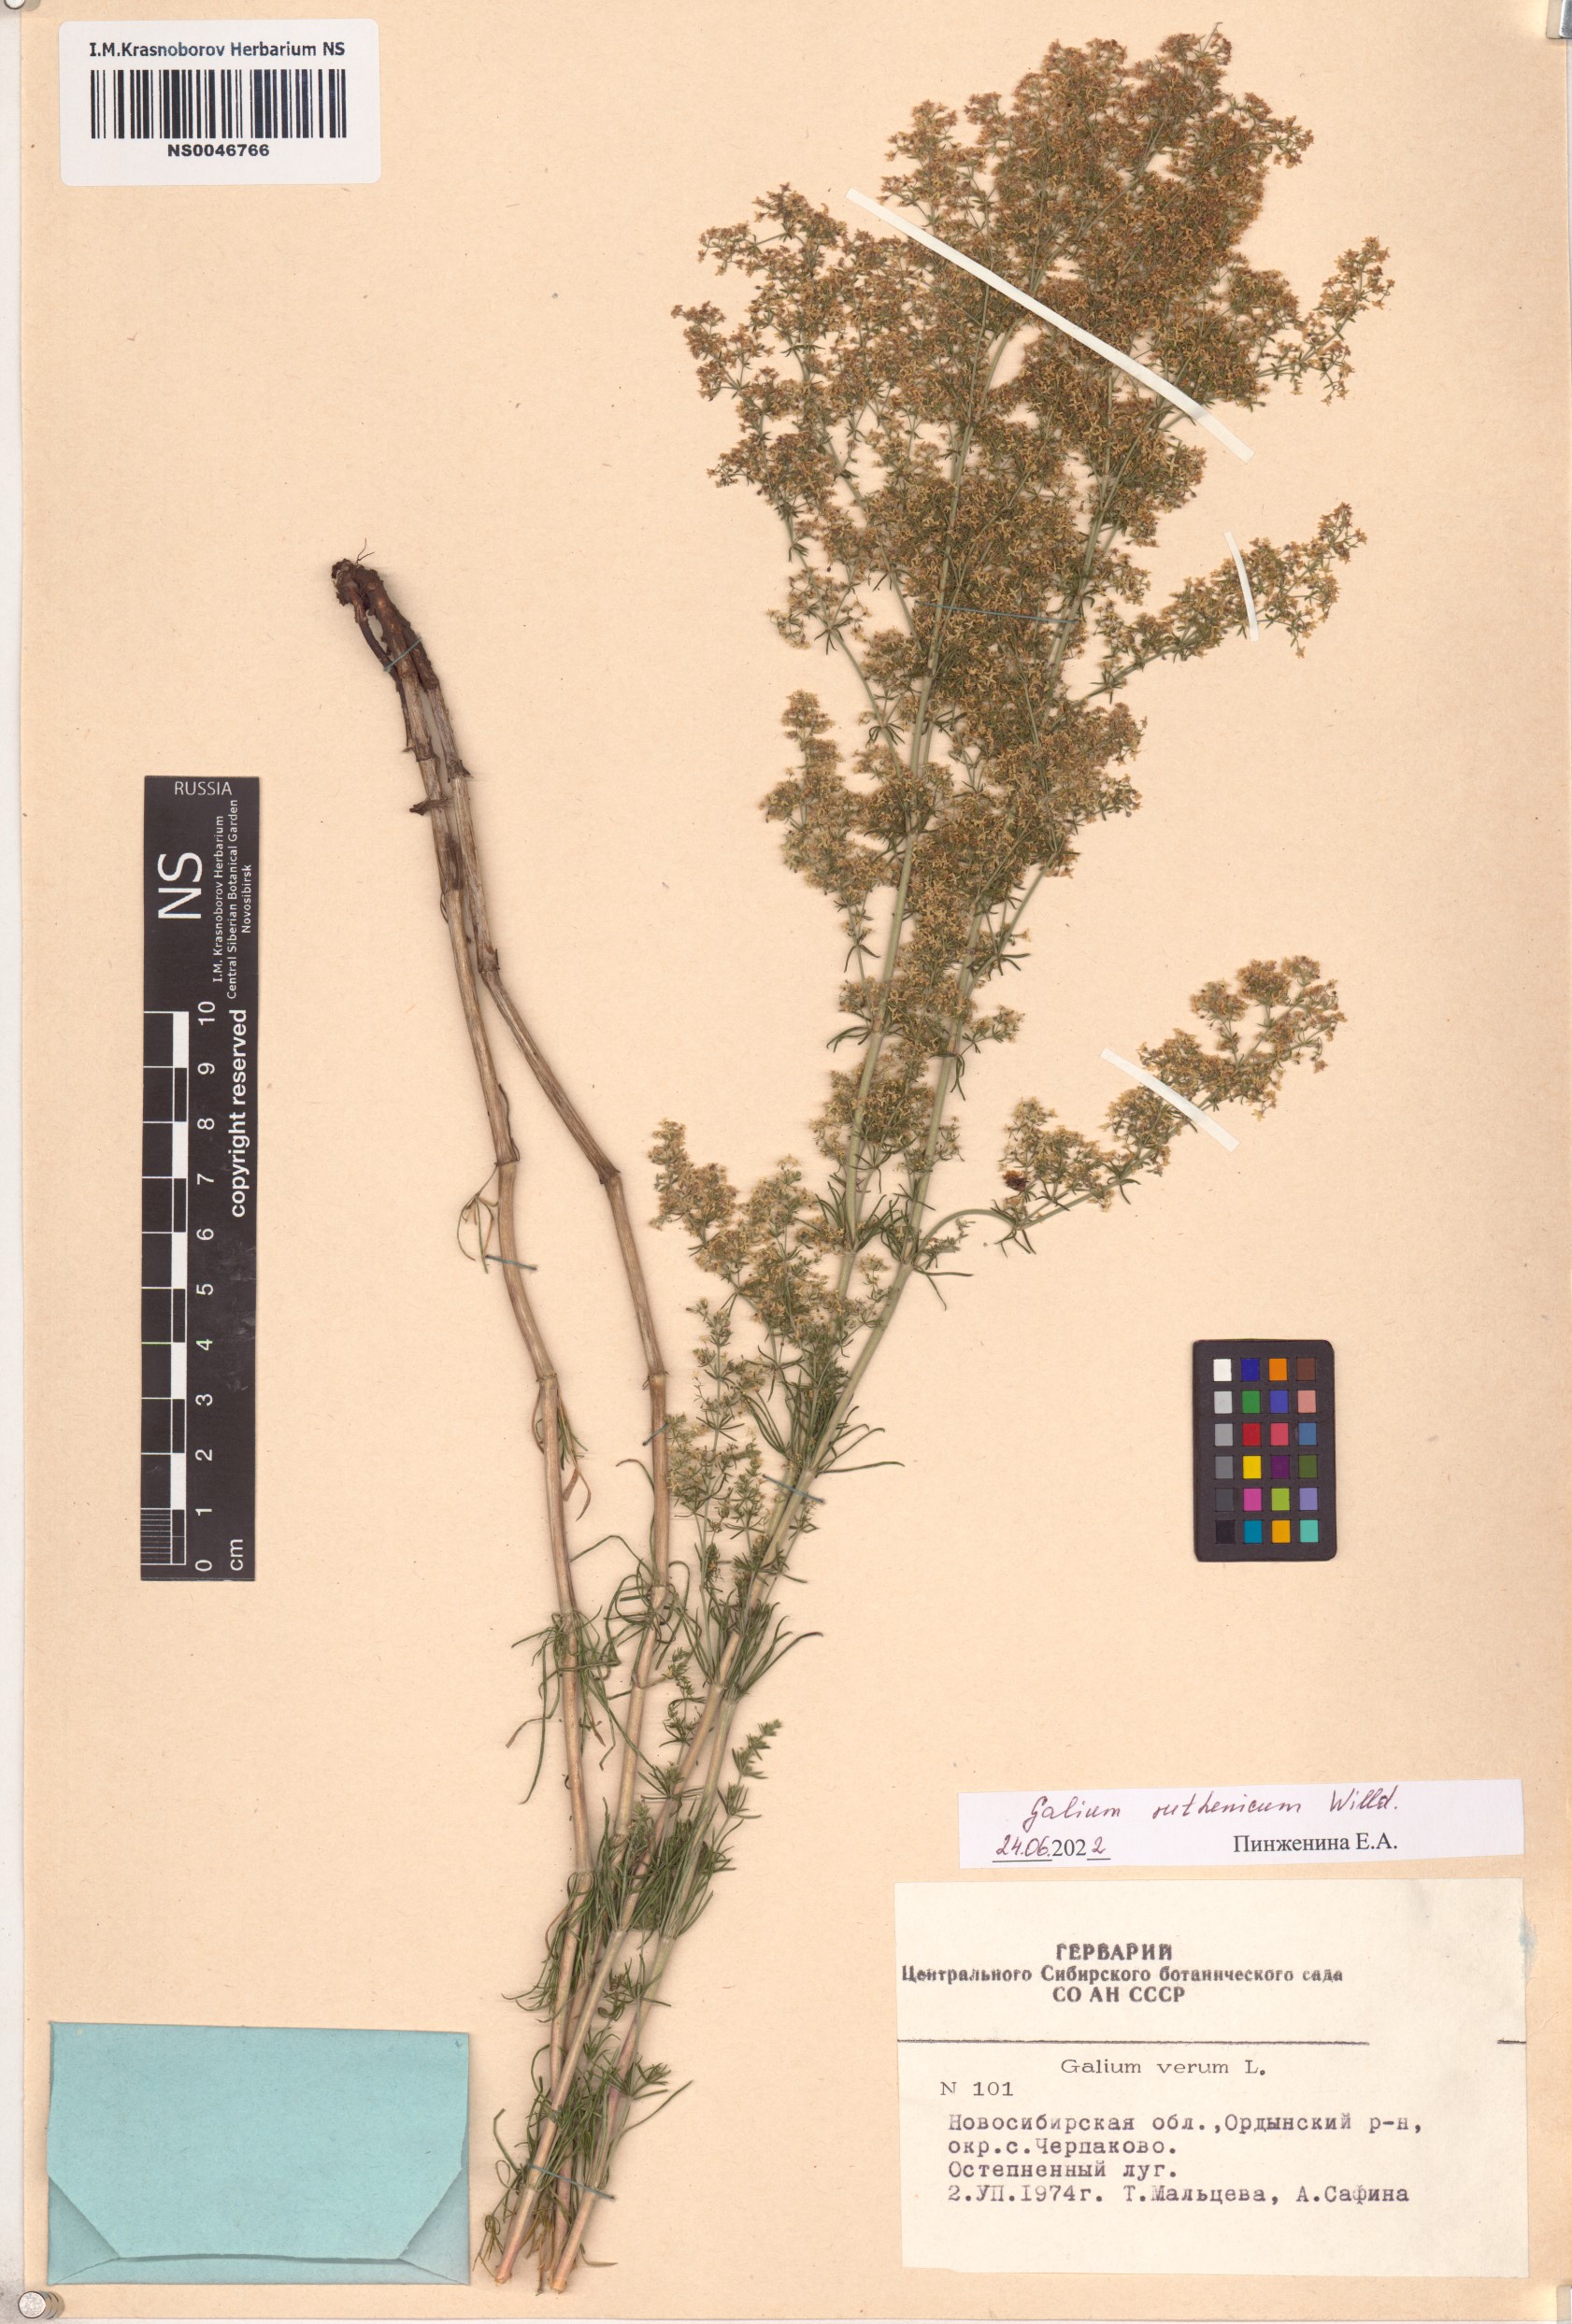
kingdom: Plantae
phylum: Tracheophyta
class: Magnoliopsida
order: Gentianales
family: Rubiaceae
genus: Galium
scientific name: Galium verum
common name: Lady's bedstraw
